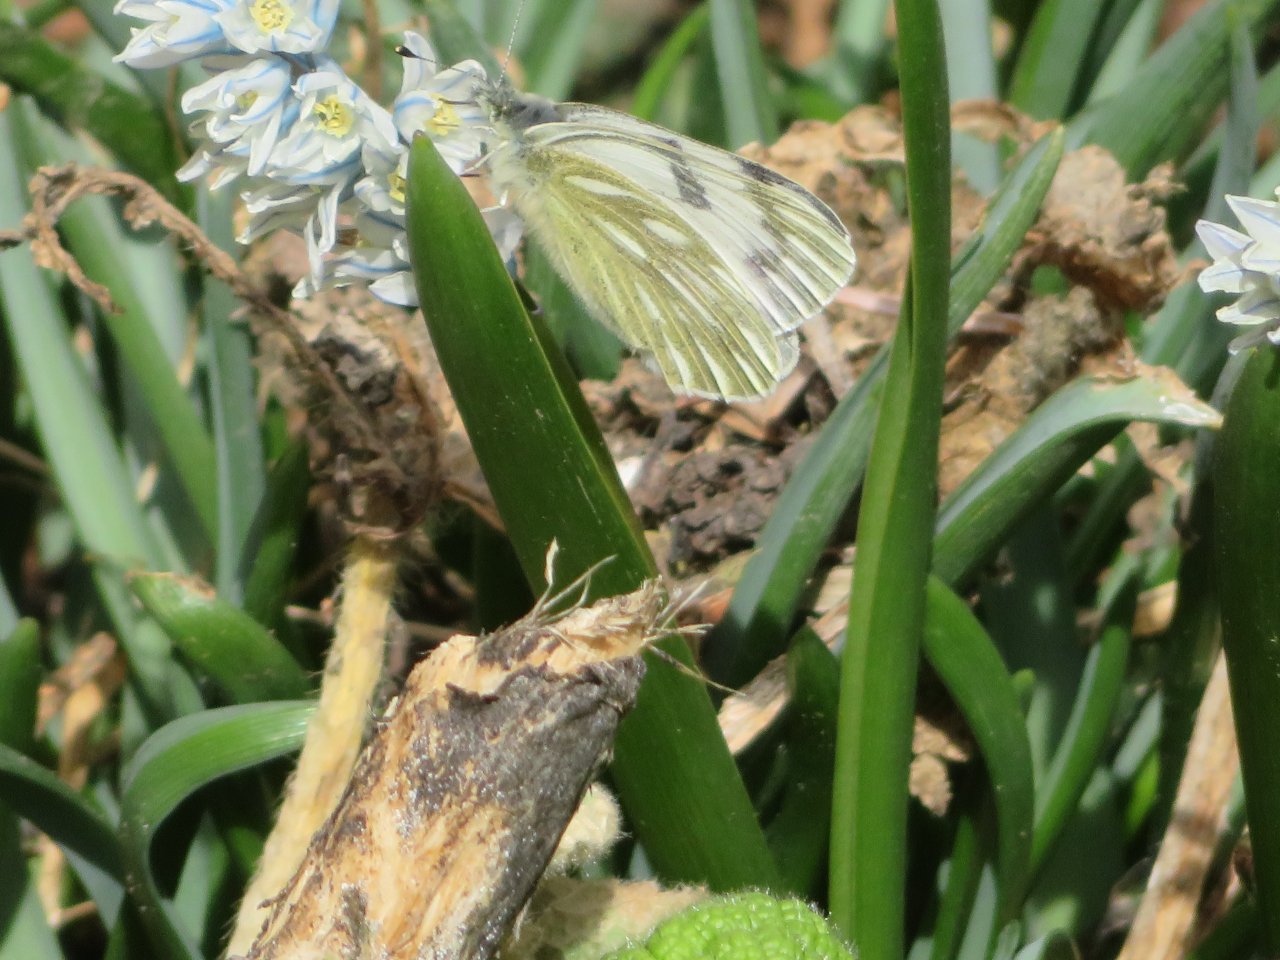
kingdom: Animalia
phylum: Arthropoda
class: Insecta
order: Lepidoptera
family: Pieridae
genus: Pontia
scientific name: Pontia occidentalis
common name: Western White
